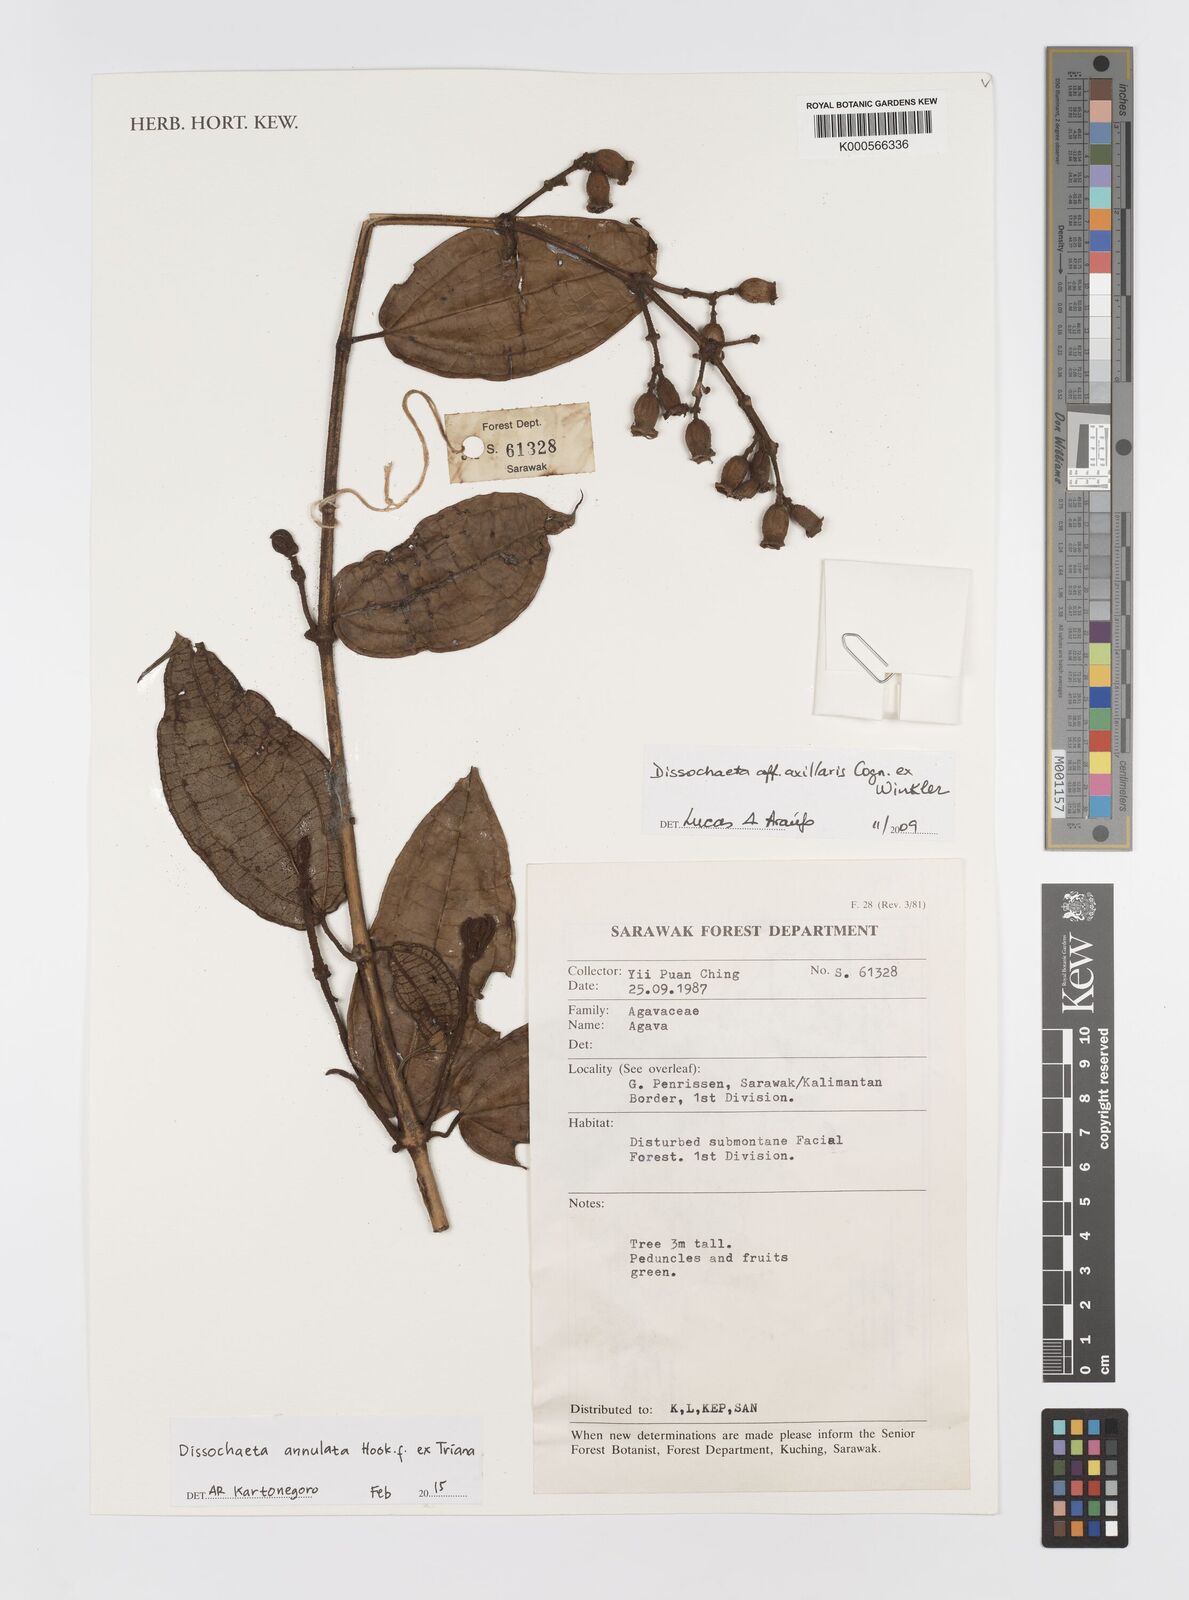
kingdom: Plantae
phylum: Tracheophyta
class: Magnoliopsida
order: Myrtales
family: Melastomataceae
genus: Dissochaeta
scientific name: Dissochaeta annulata
